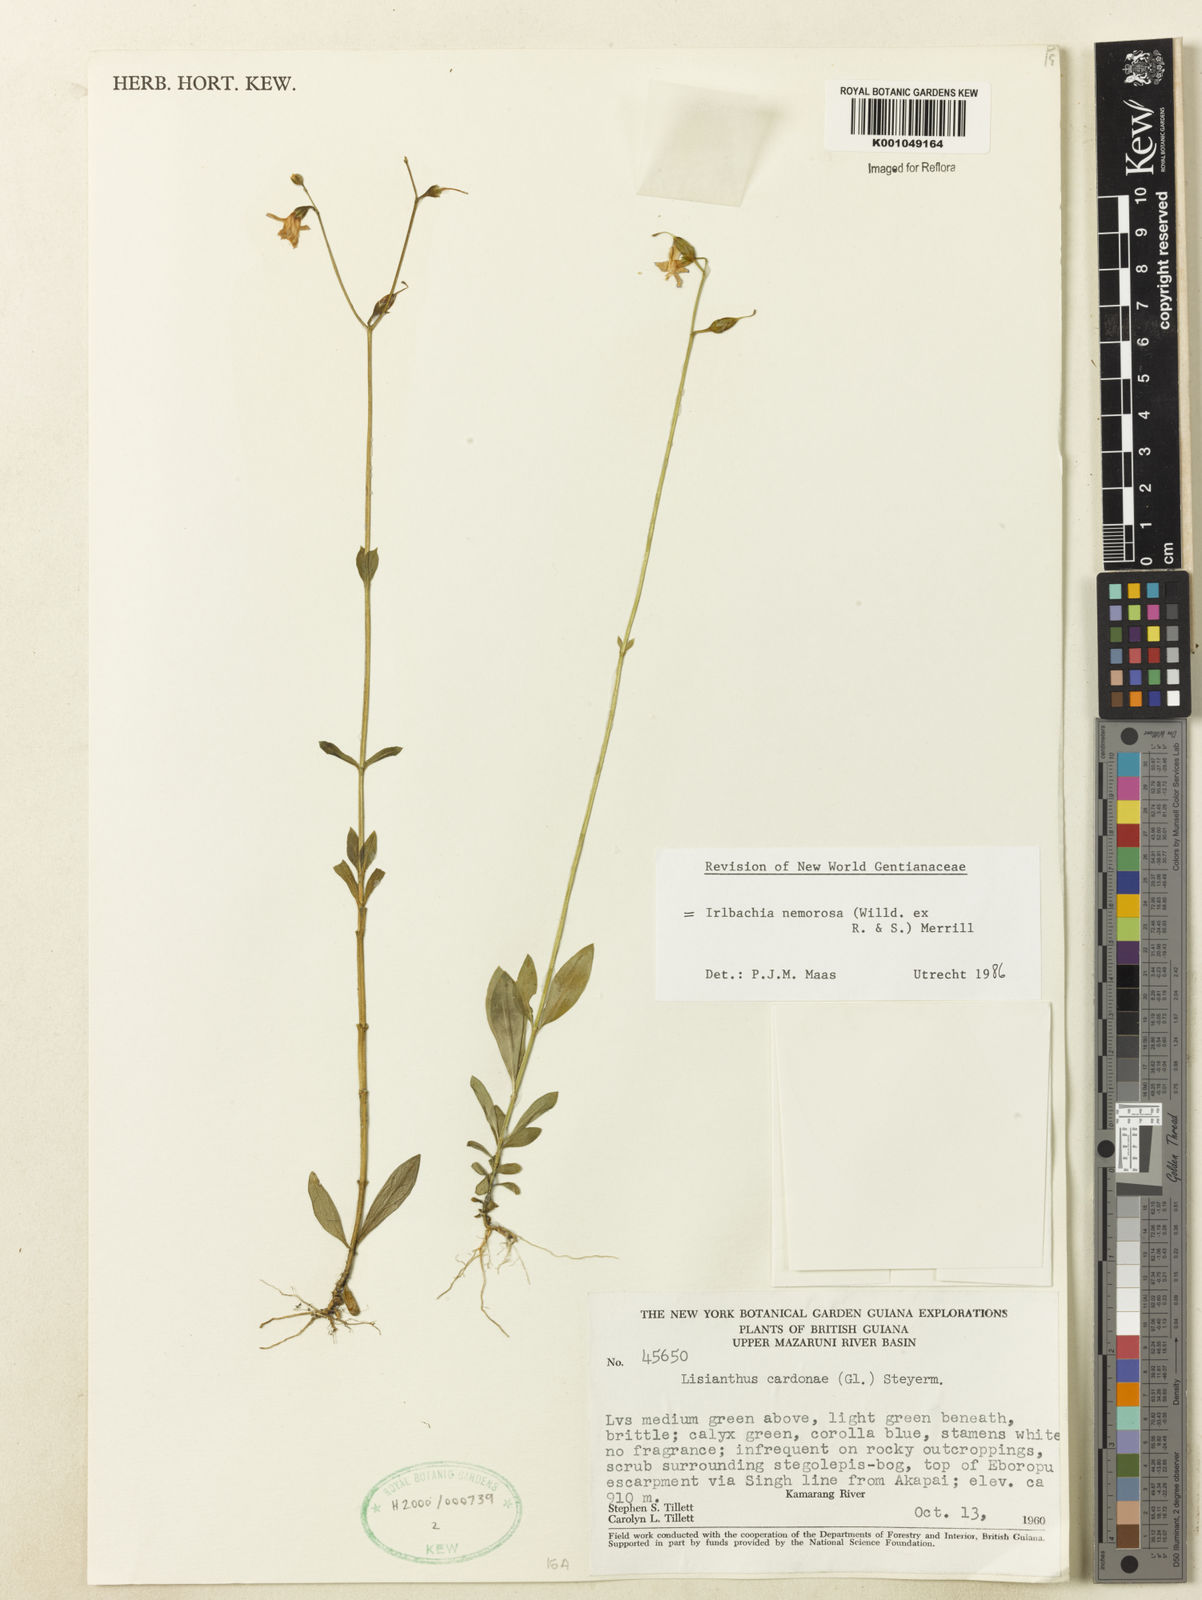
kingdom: Plantae
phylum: Tracheophyta
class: Magnoliopsida
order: Gentianales
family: Gentianaceae
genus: Irlbachia
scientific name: Irlbachia nemorosa
